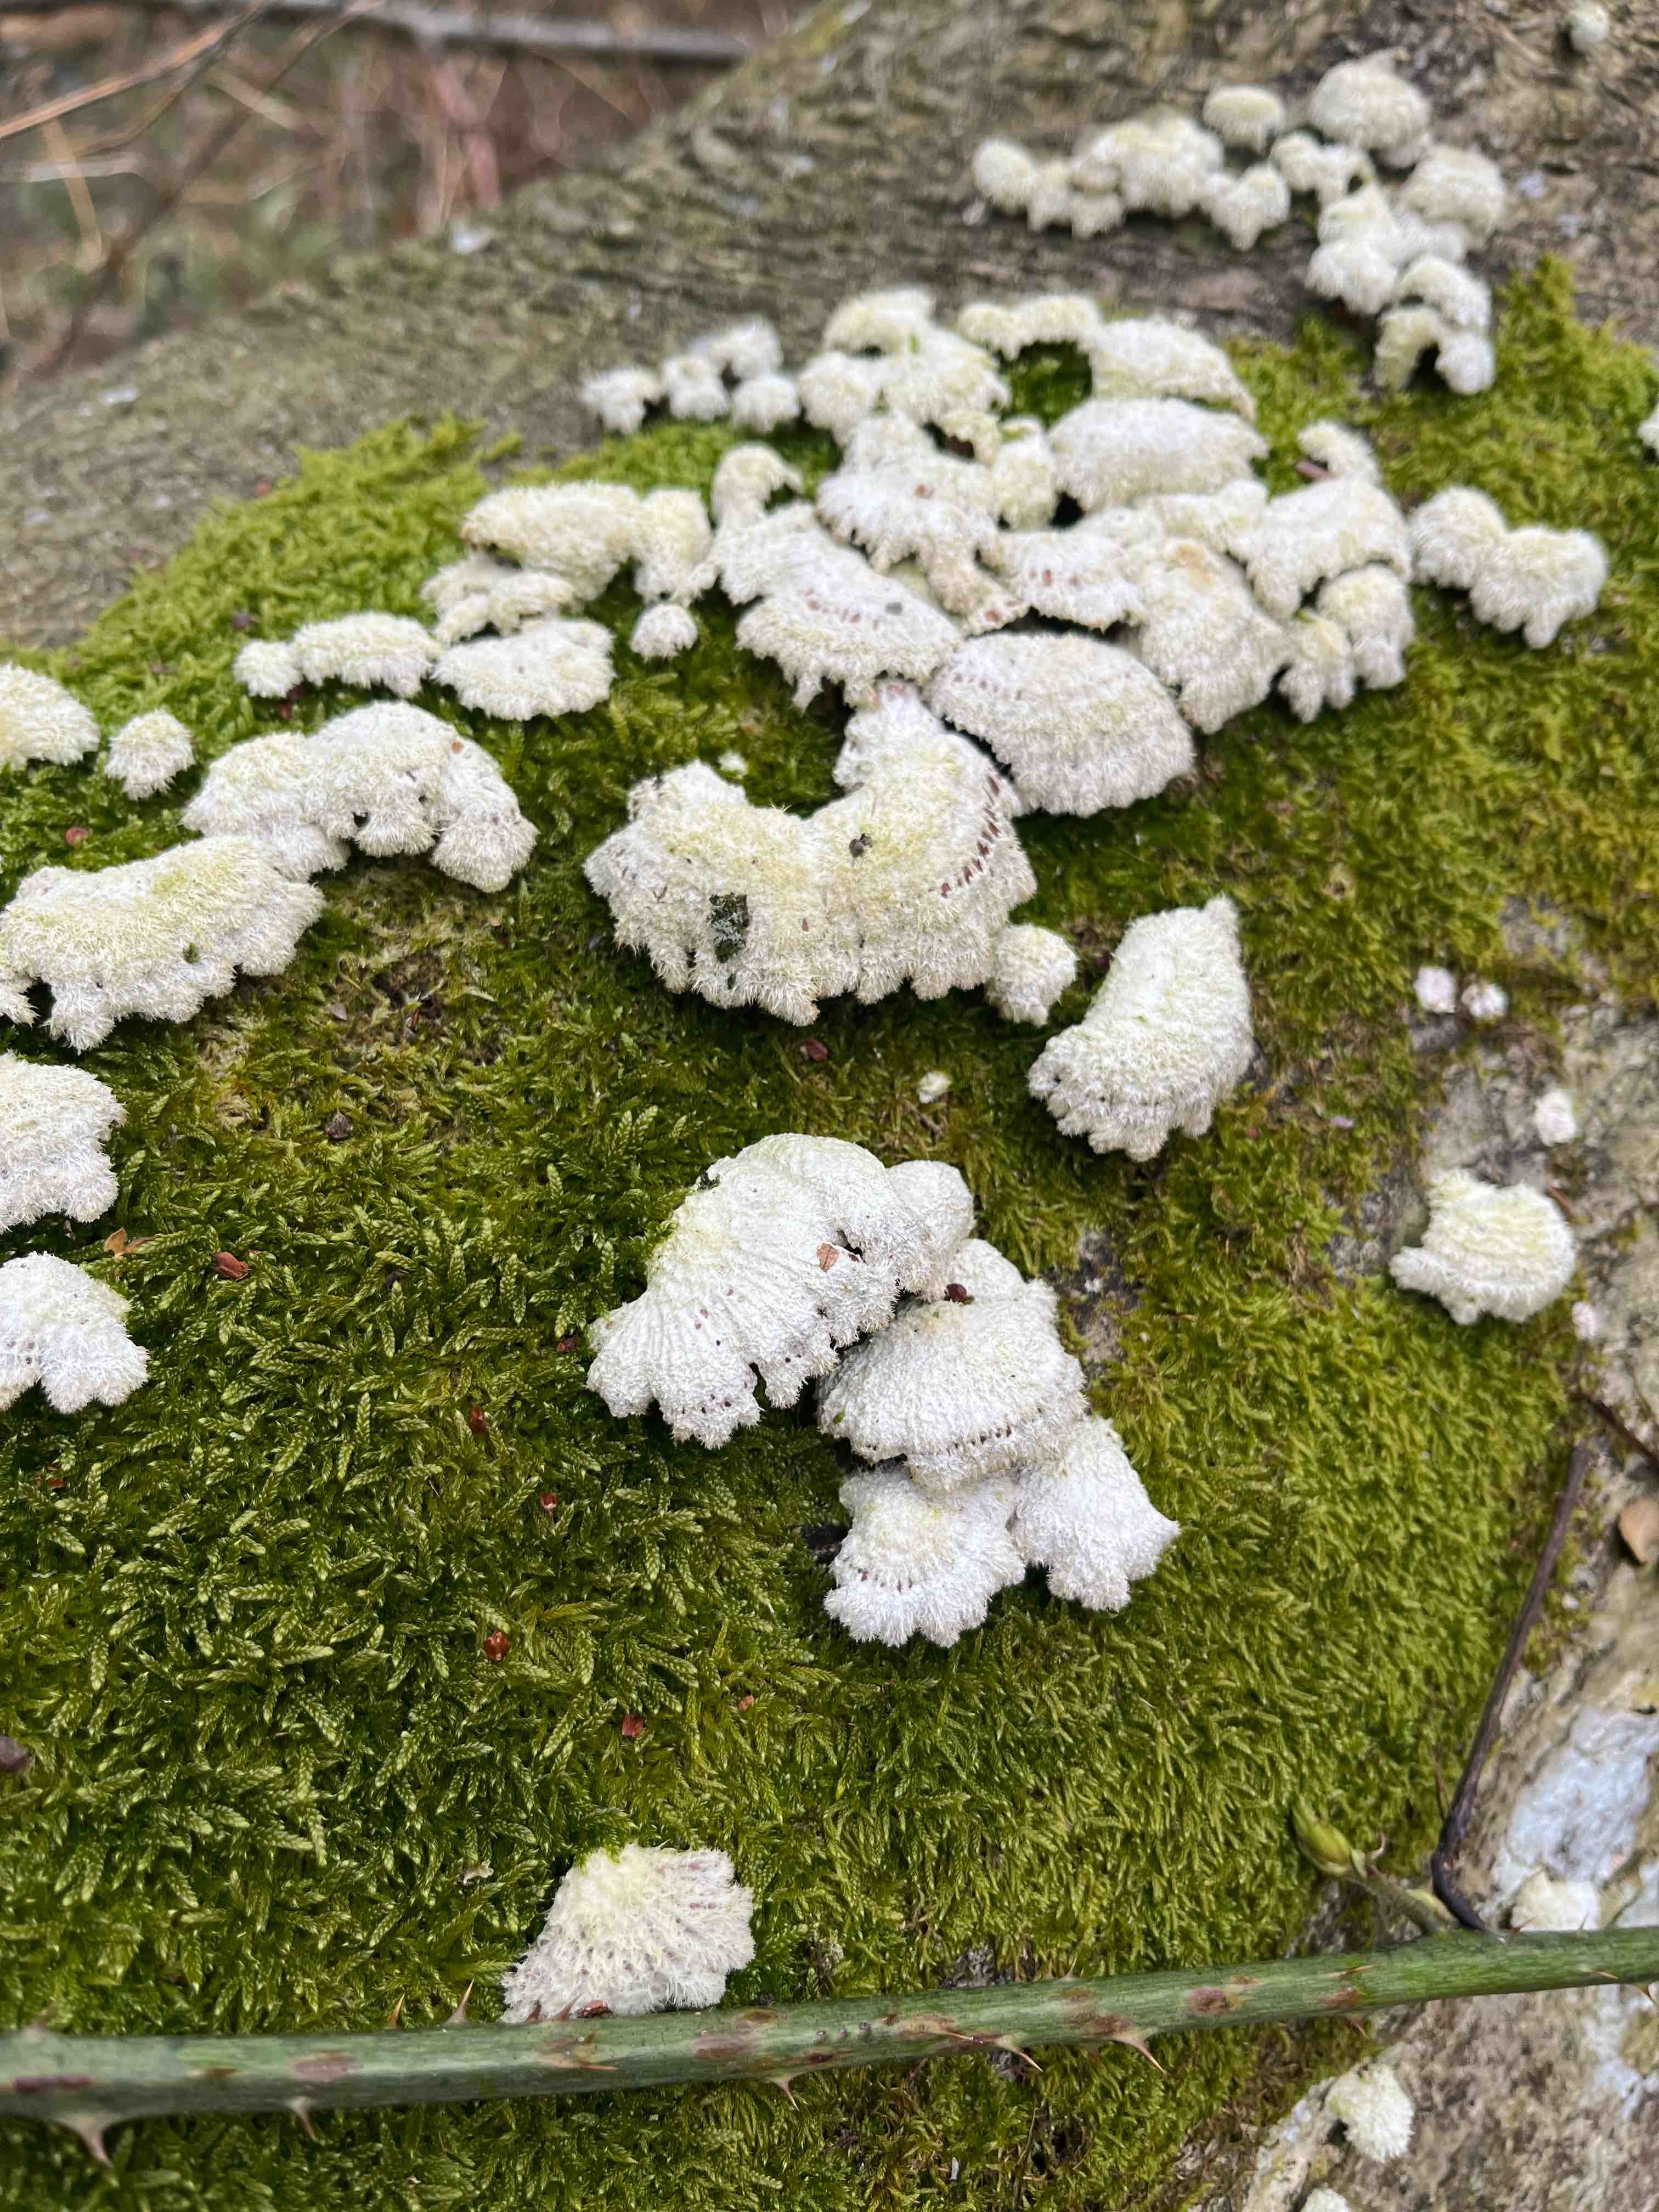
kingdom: Fungi
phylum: Basidiomycota
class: Agaricomycetes
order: Agaricales
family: Schizophyllaceae
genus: Schizophyllum
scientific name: Schizophyllum commune
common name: kløvblad
